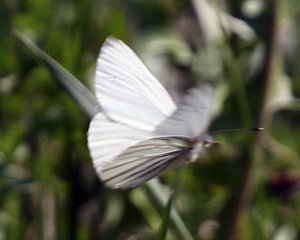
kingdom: Animalia
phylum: Arthropoda
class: Insecta
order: Lepidoptera
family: Pieridae
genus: Pieris
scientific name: Pieris oleracea
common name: Mustard White
